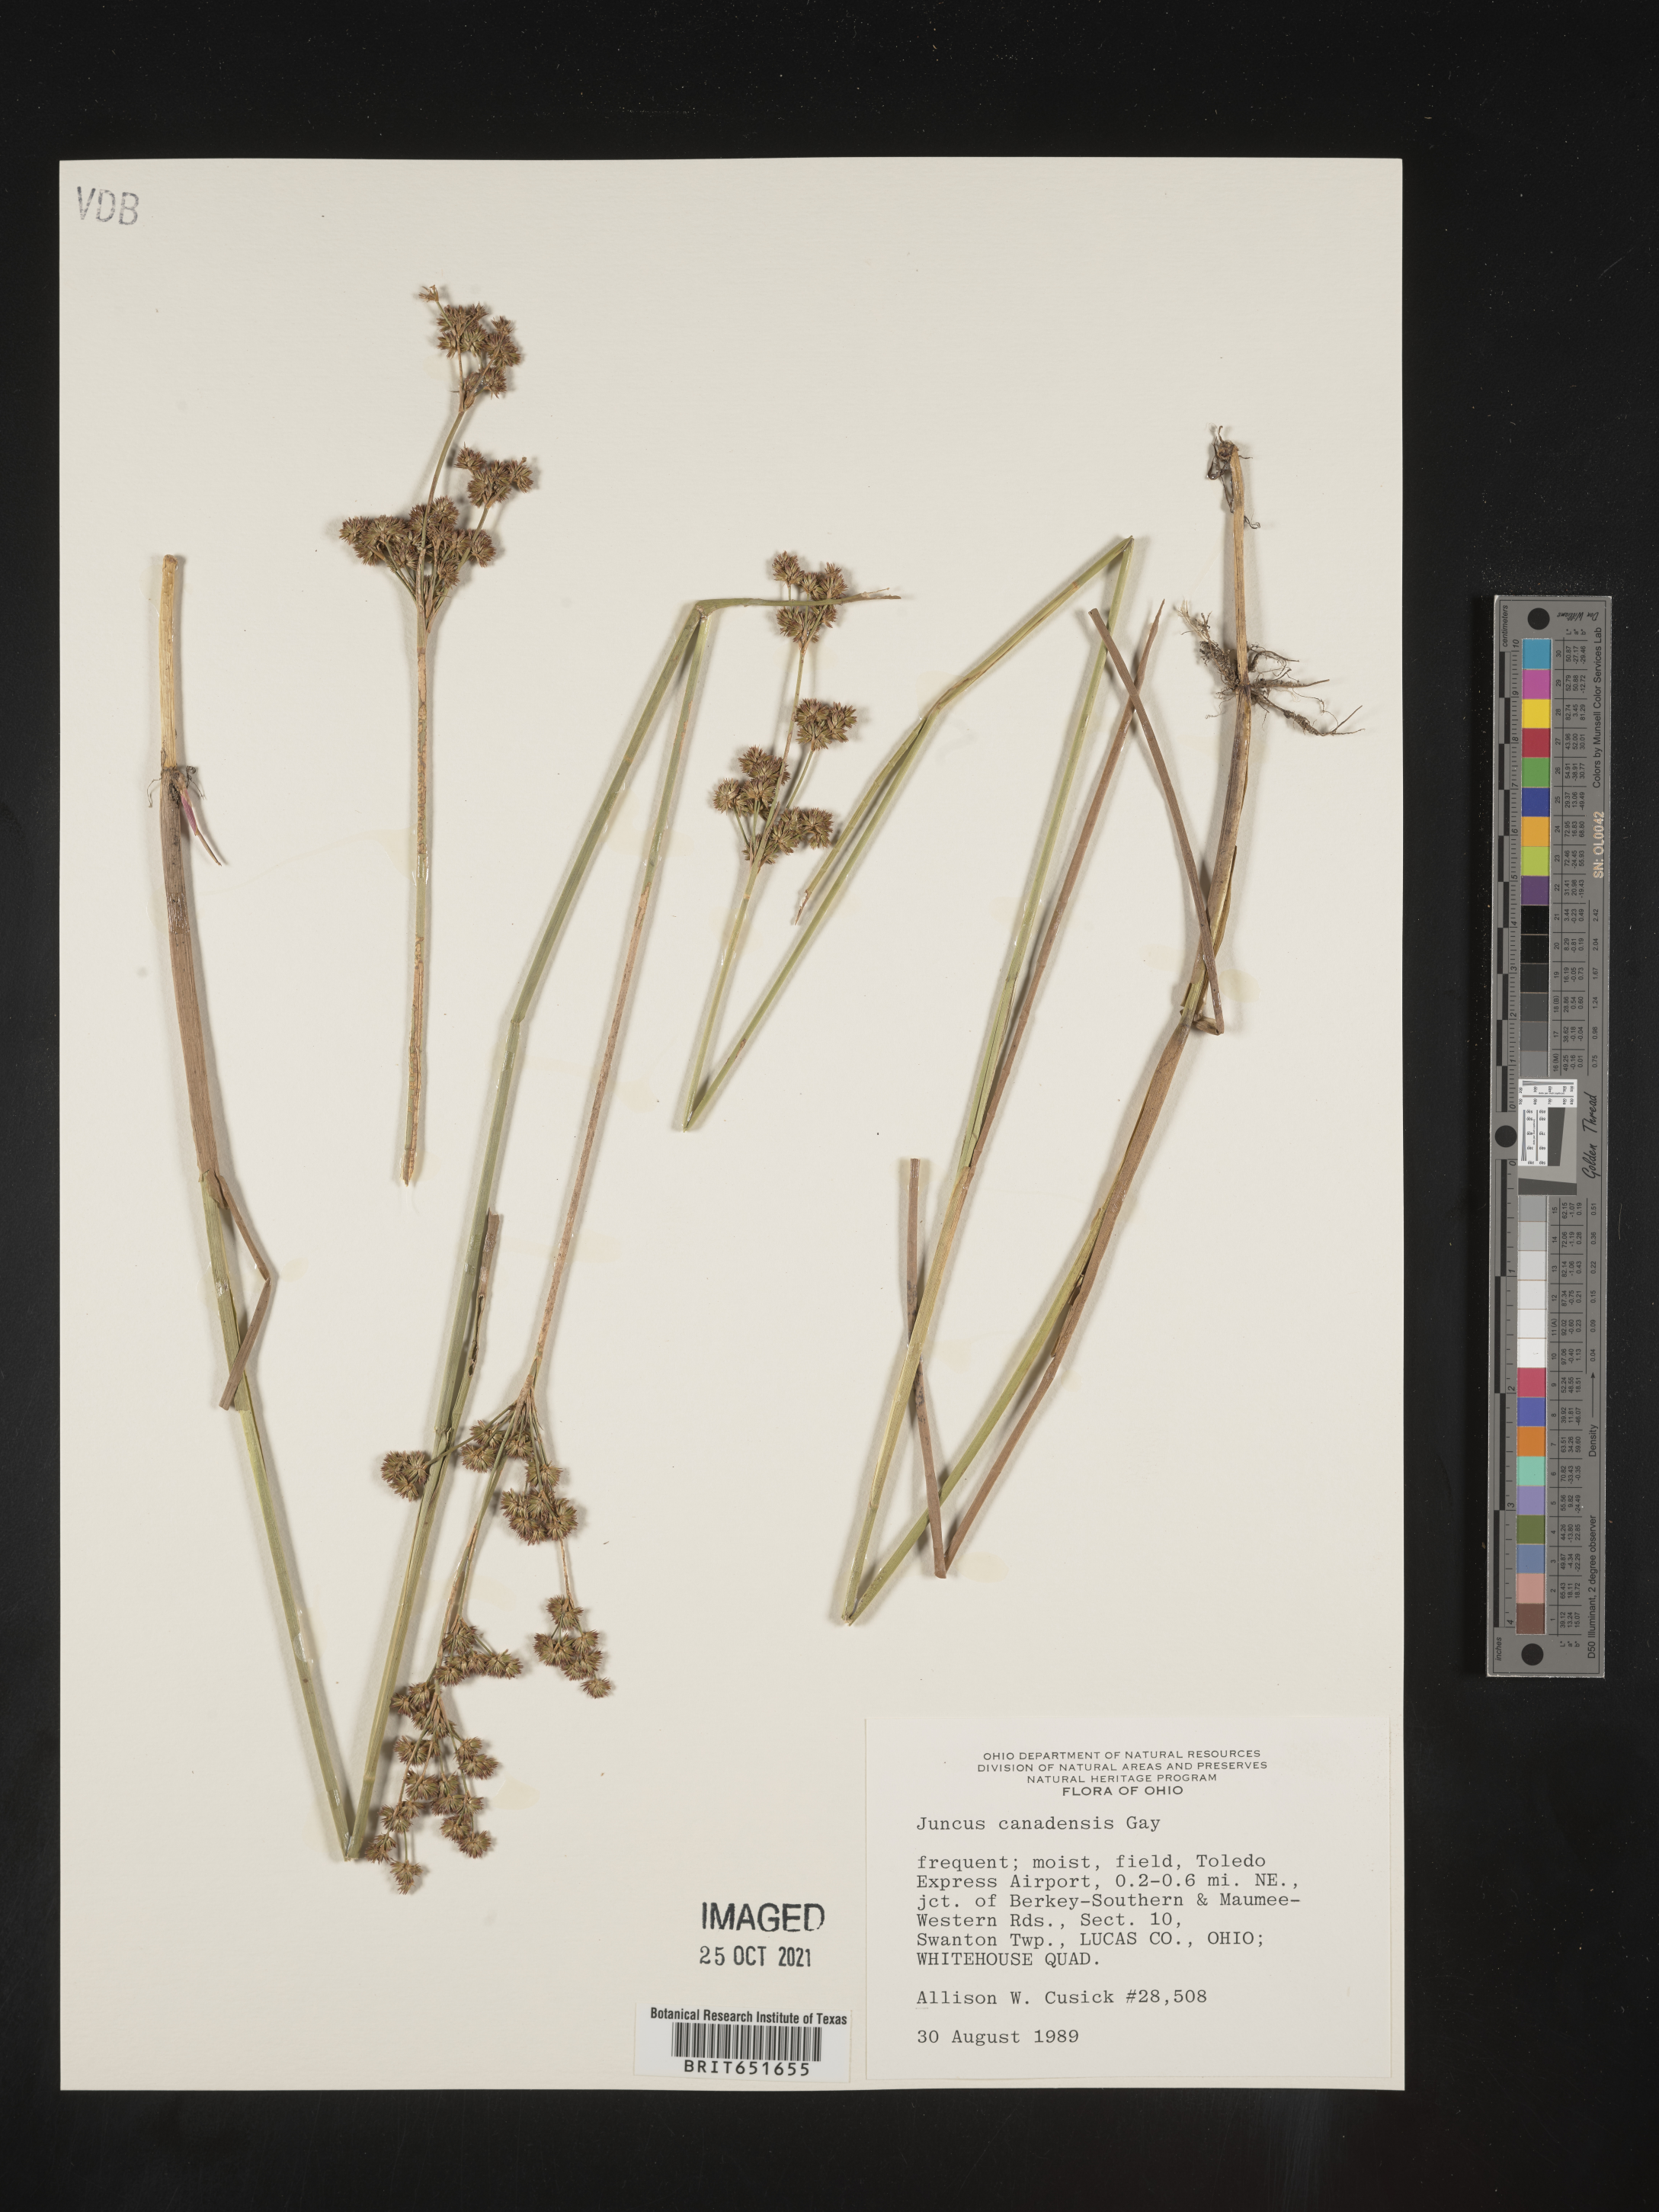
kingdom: Plantae
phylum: Tracheophyta
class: Liliopsida
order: Poales
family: Juncaceae
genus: Juncus
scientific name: Juncus canadensis
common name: Canada rush
